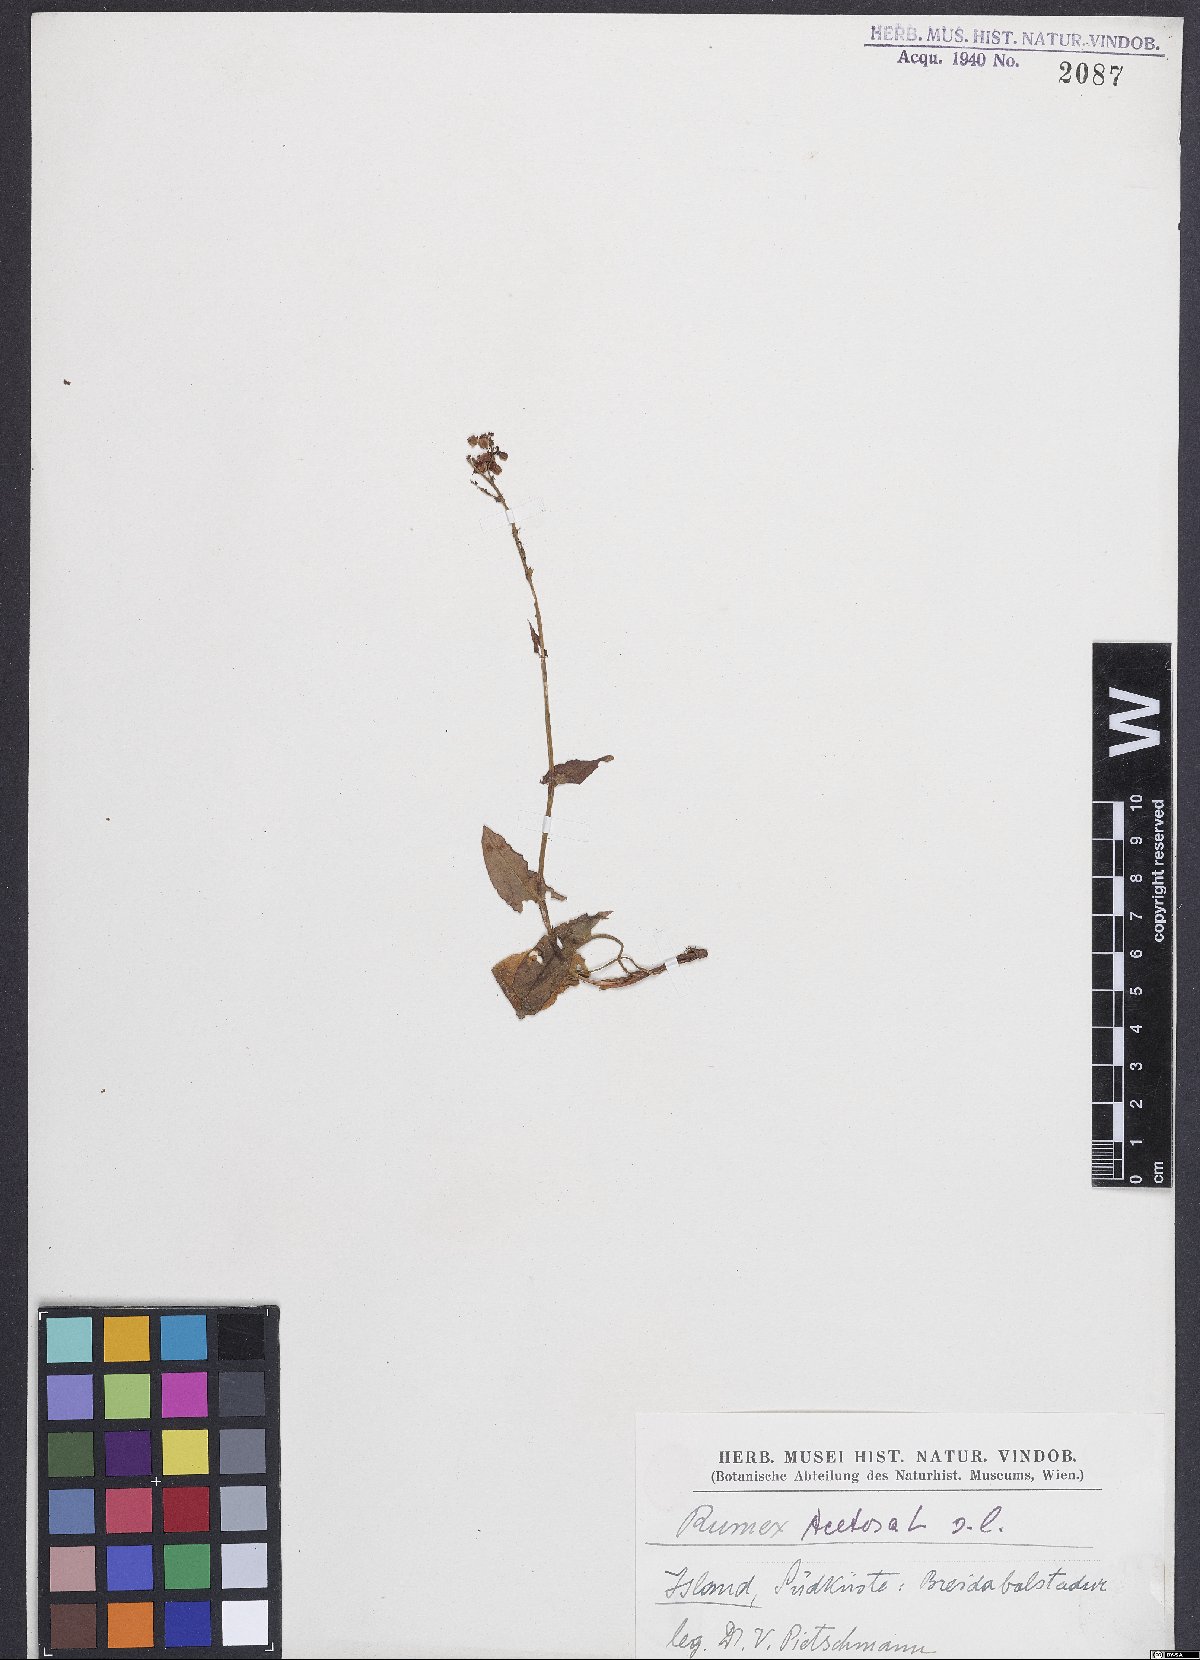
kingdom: Plantae
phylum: Tracheophyta
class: Magnoliopsida
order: Caryophyllales
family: Polygonaceae
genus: Rumex
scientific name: Rumex acetosa
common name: Garden sorrel
